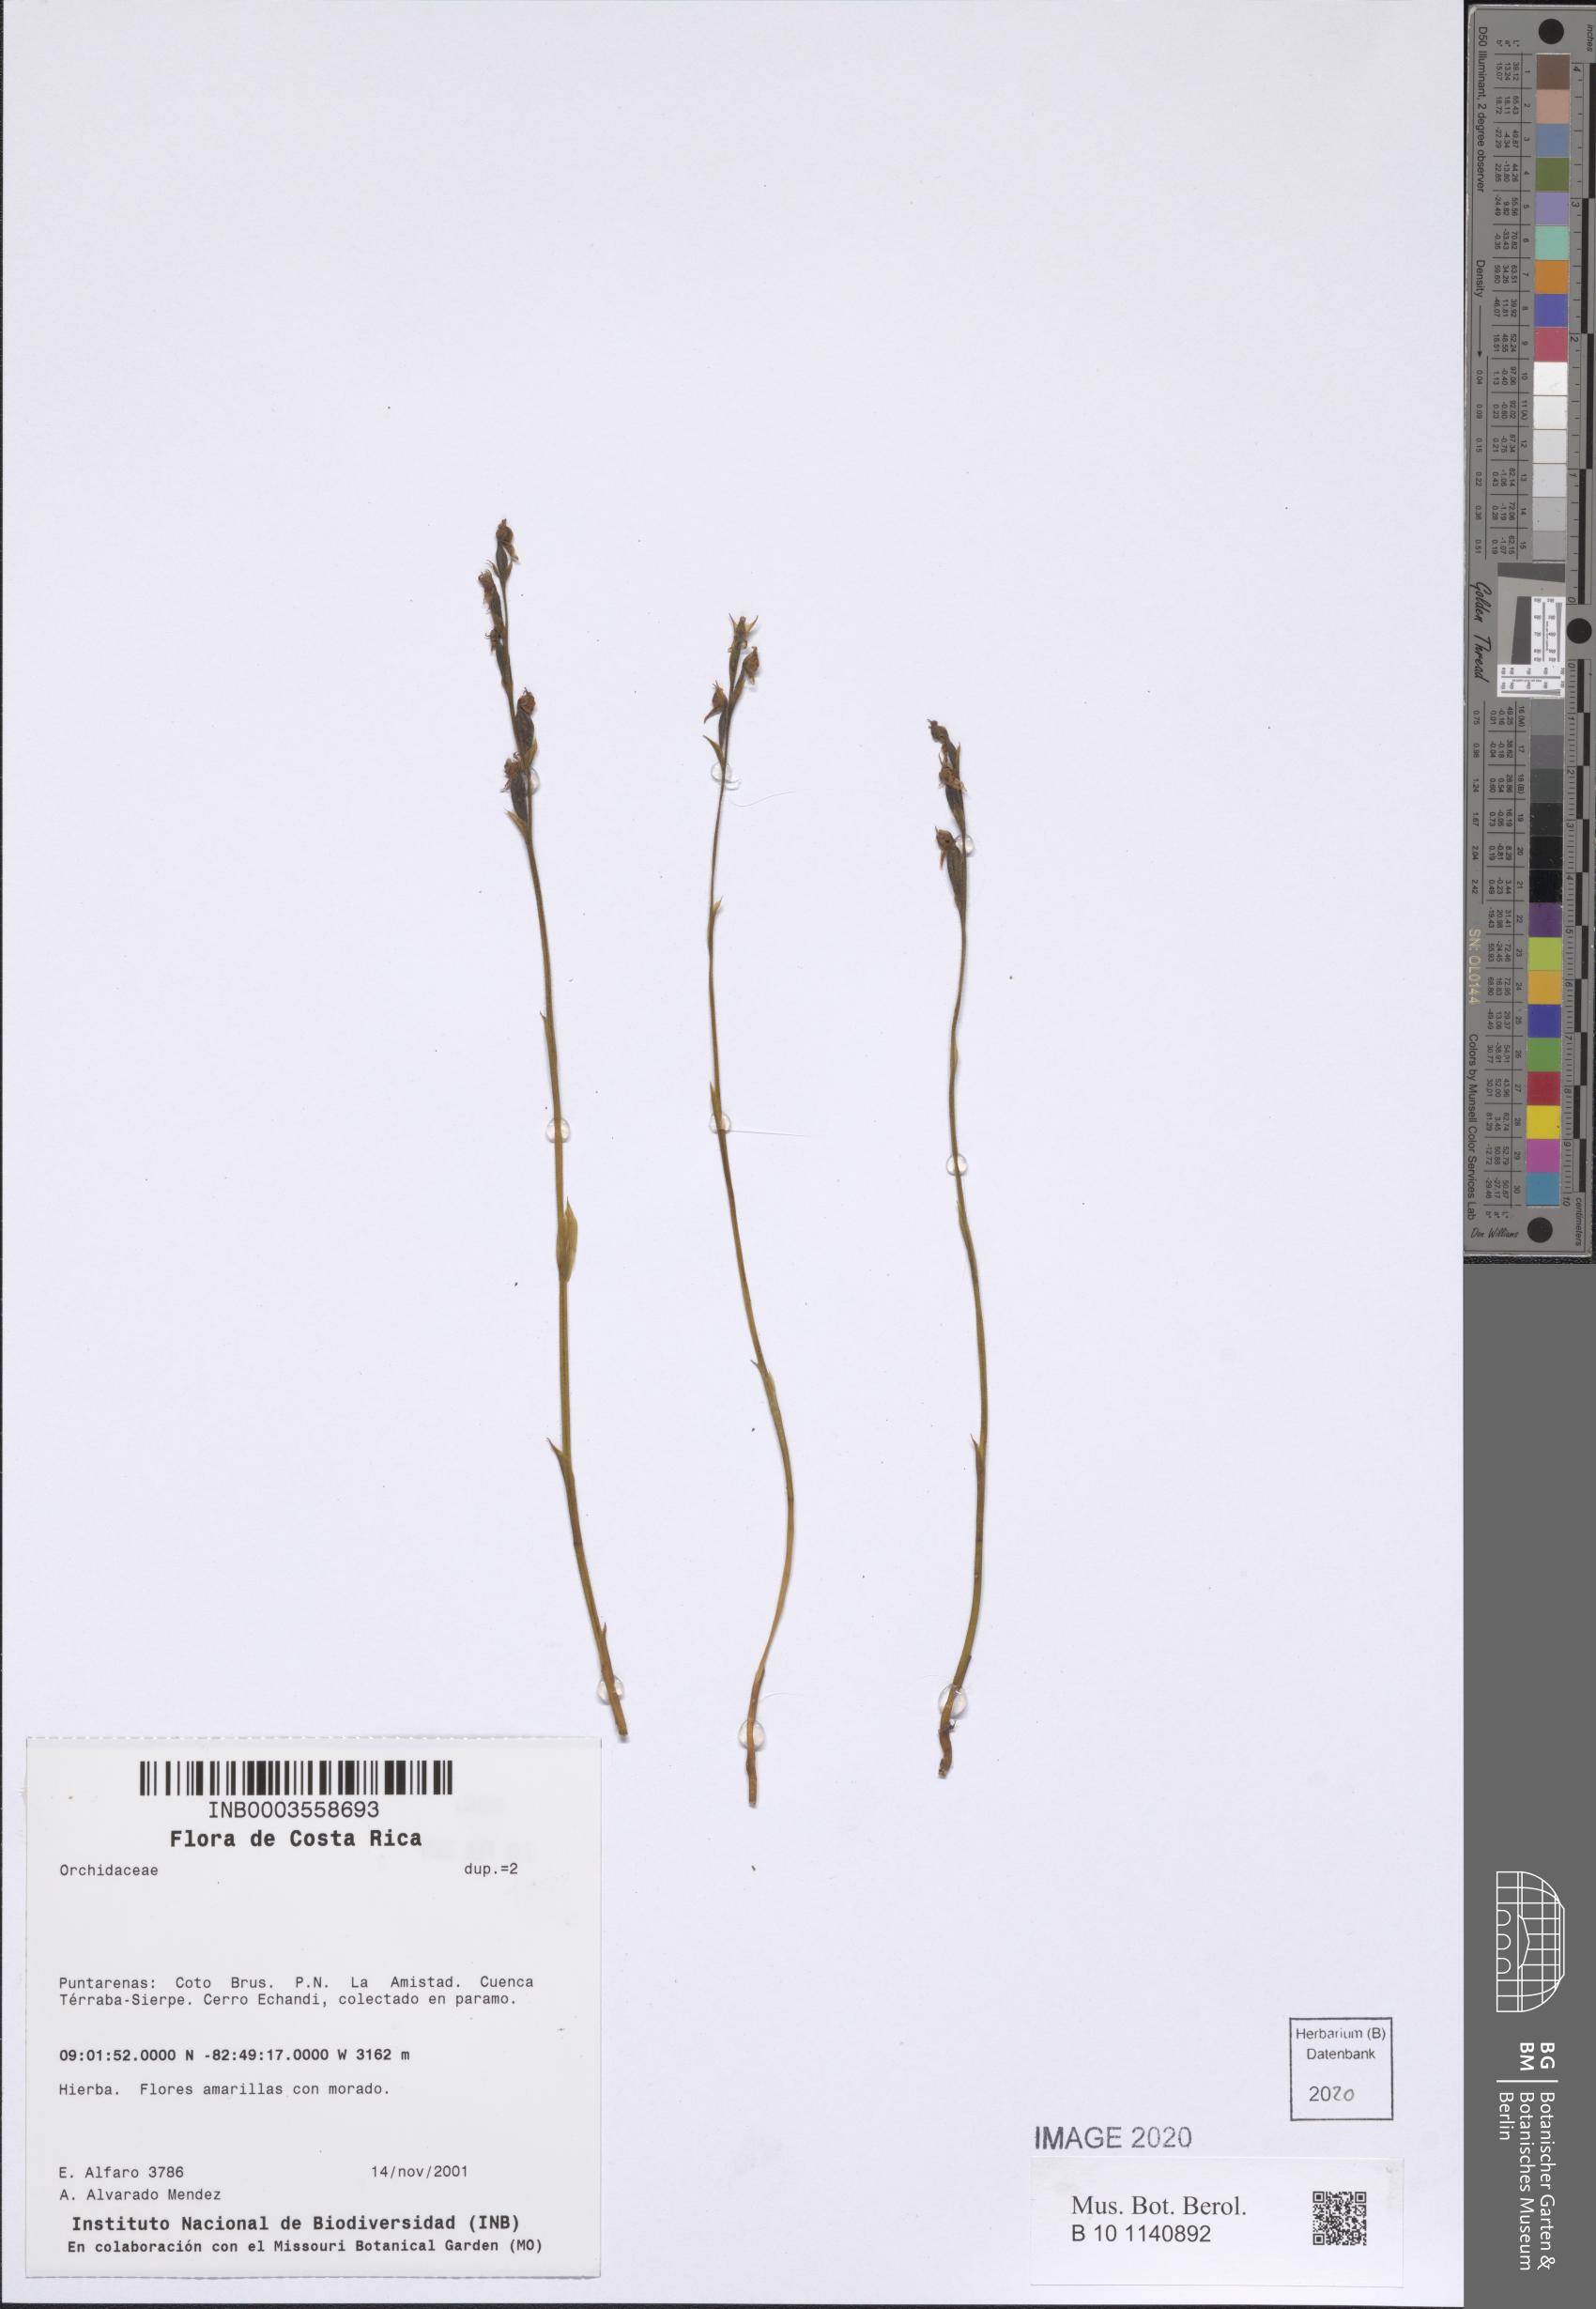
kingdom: Plantae
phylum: Tracheophyta
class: Liliopsida
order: Asparagales
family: Orchidaceae
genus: Pterichis
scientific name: Pterichis
